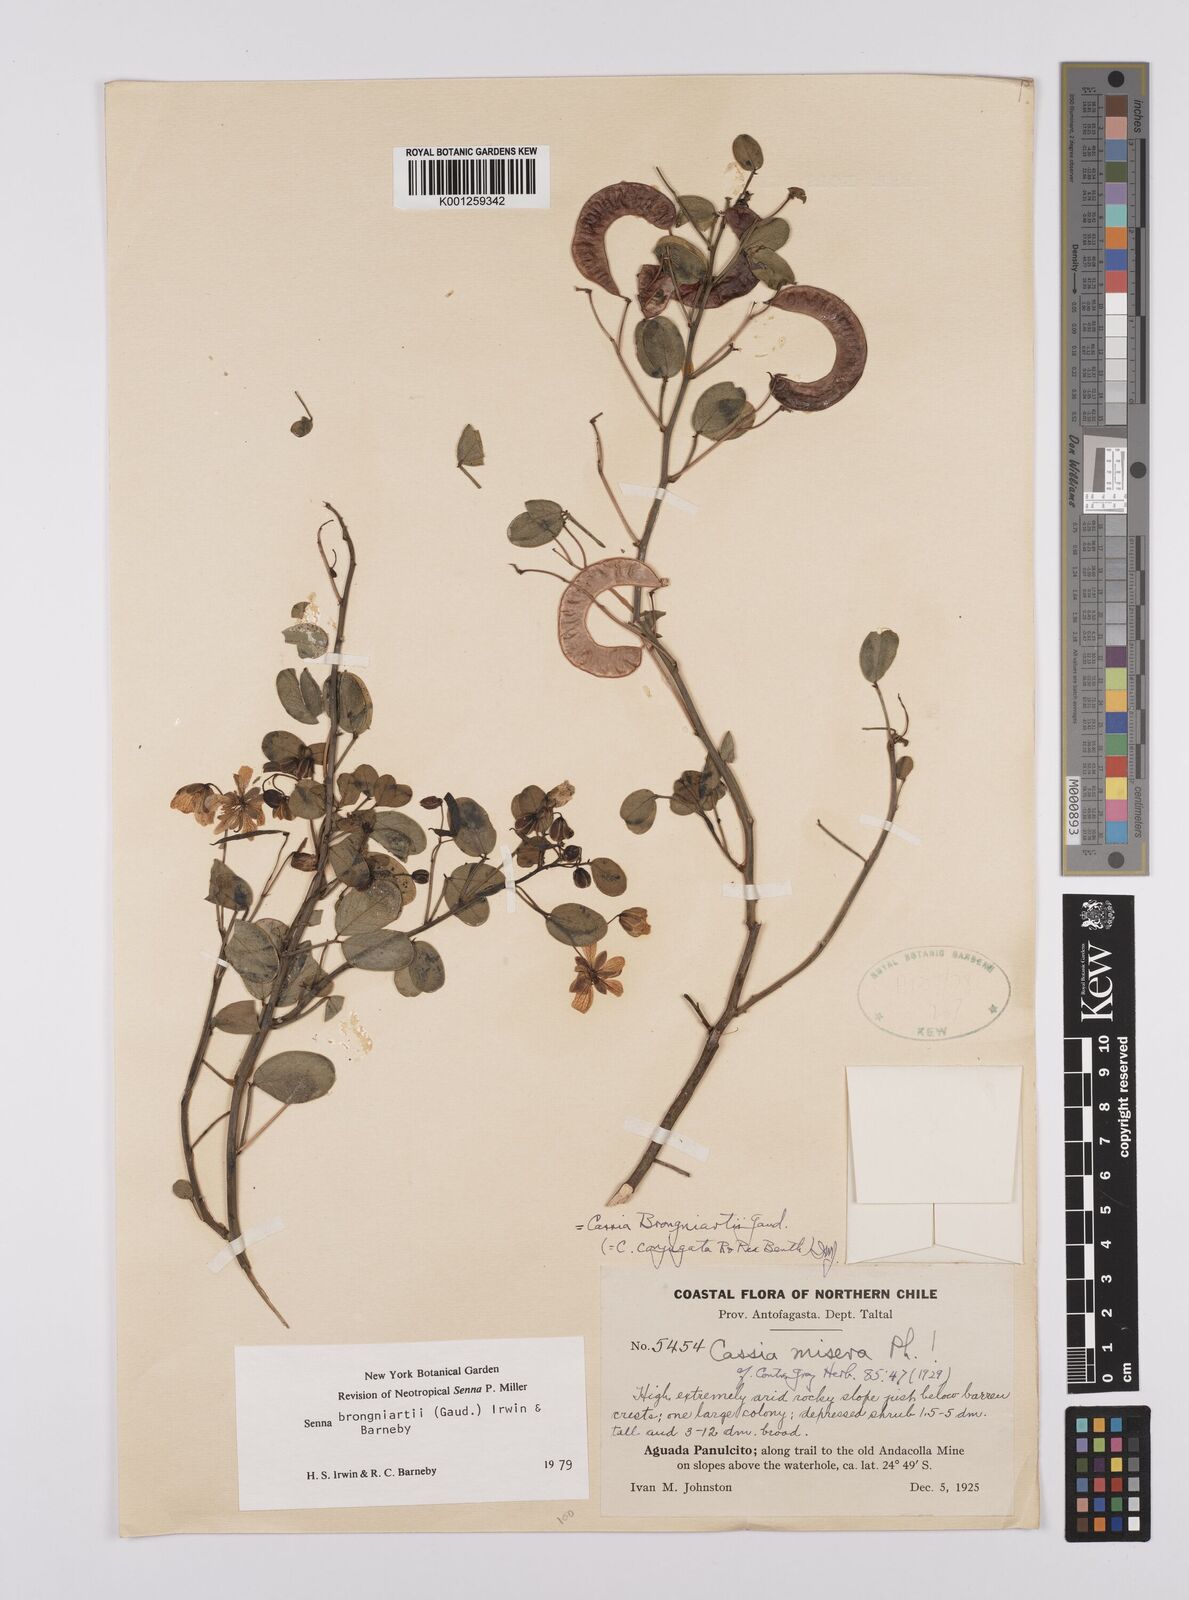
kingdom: Plantae
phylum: Tracheophyta
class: Magnoliopsida
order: Fabales
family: Fabaceae
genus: Senna
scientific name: Senna brongniartii
